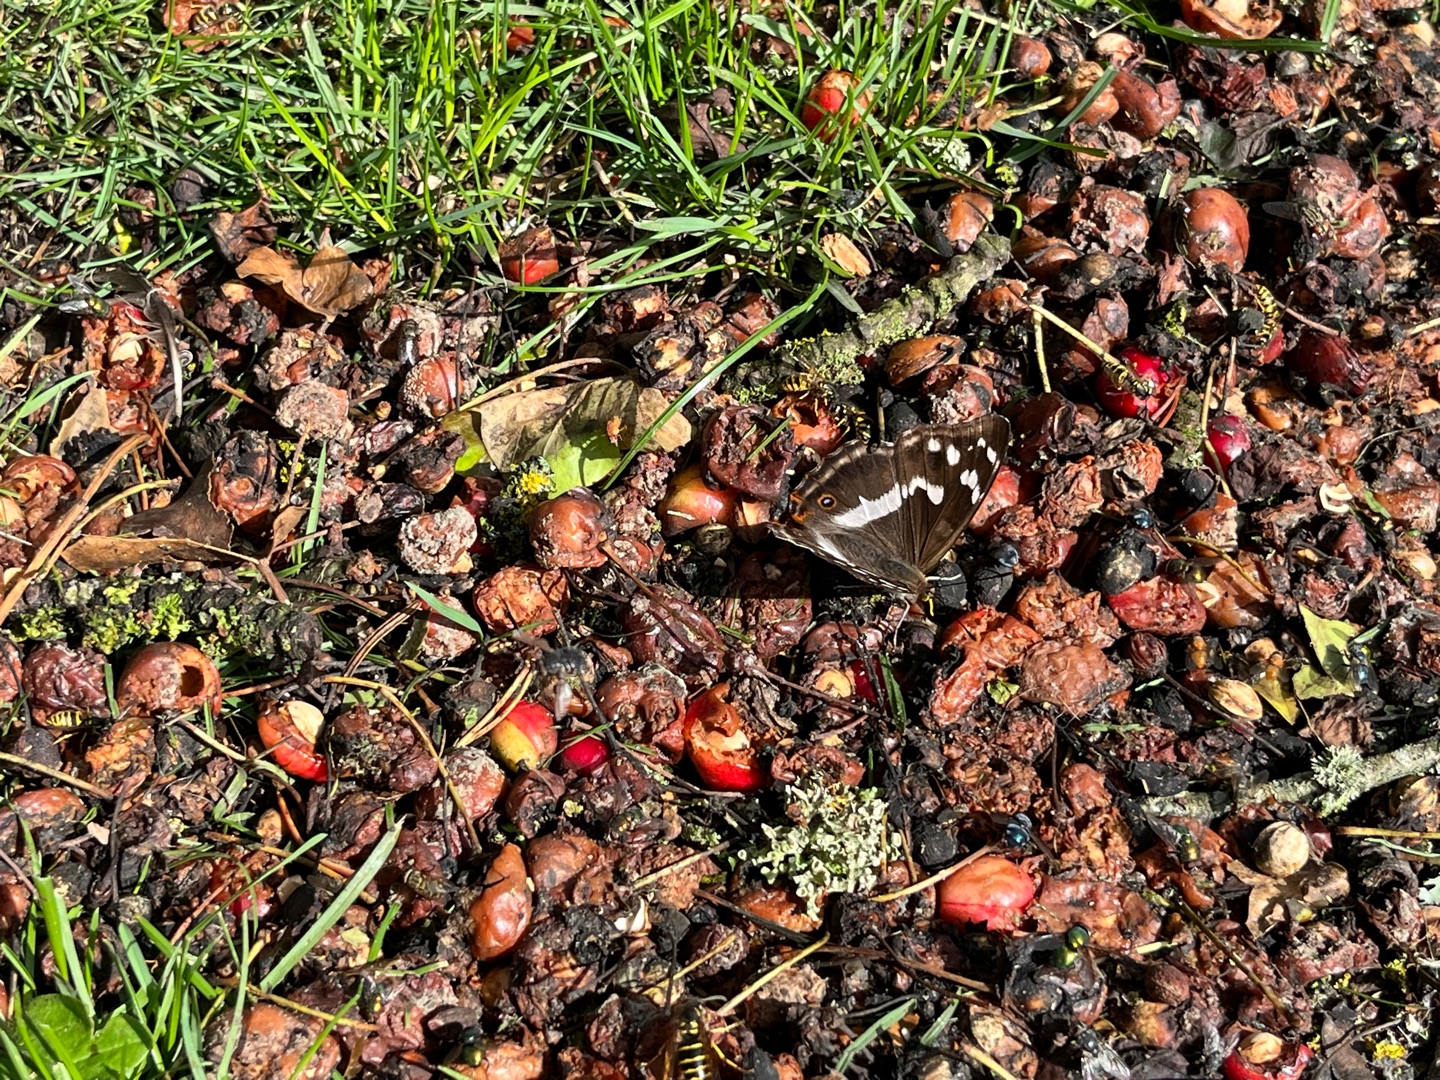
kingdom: Animalia
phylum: Arthropoda
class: Insecta
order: Lepidoptera
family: Nymphalidae
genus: Apatura
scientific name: Apatura iris
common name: Iris
